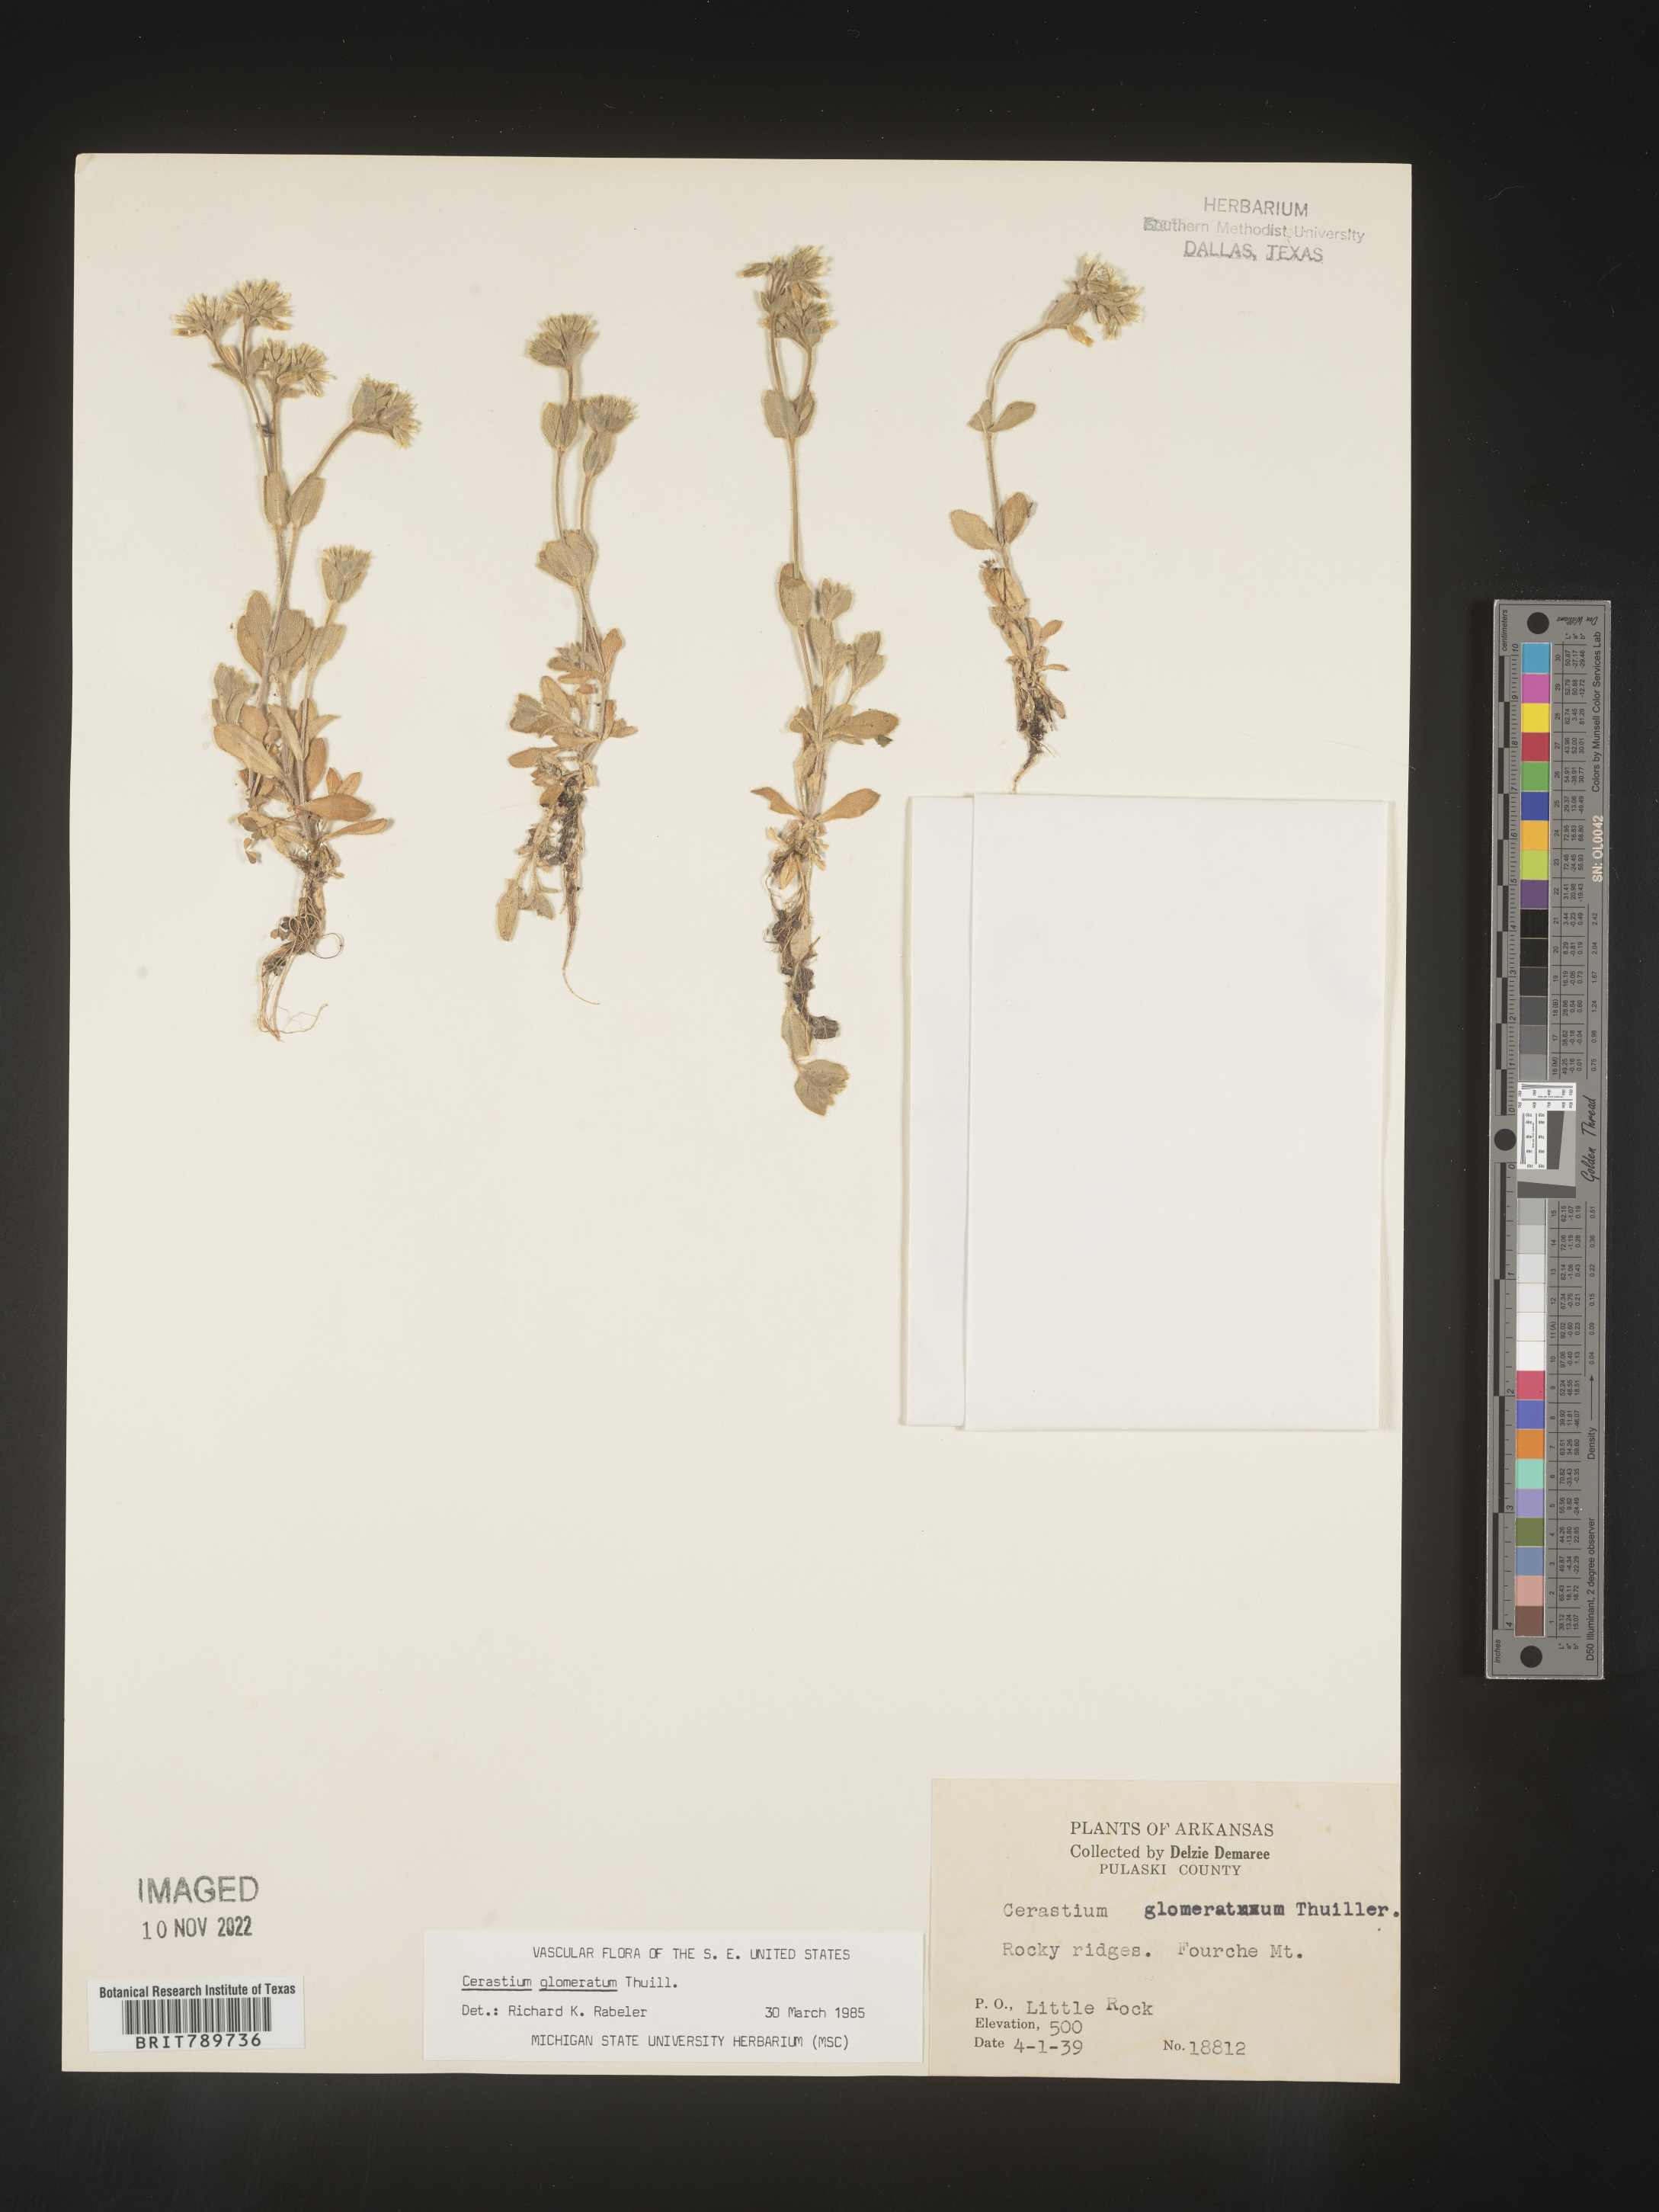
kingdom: Plantae
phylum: Tracheophyta
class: Magnoliopsida
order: Caryophyllales
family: Caryophyllaceae
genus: Cerastium
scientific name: Cerastium glomeratum
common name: Sticky chickweed
